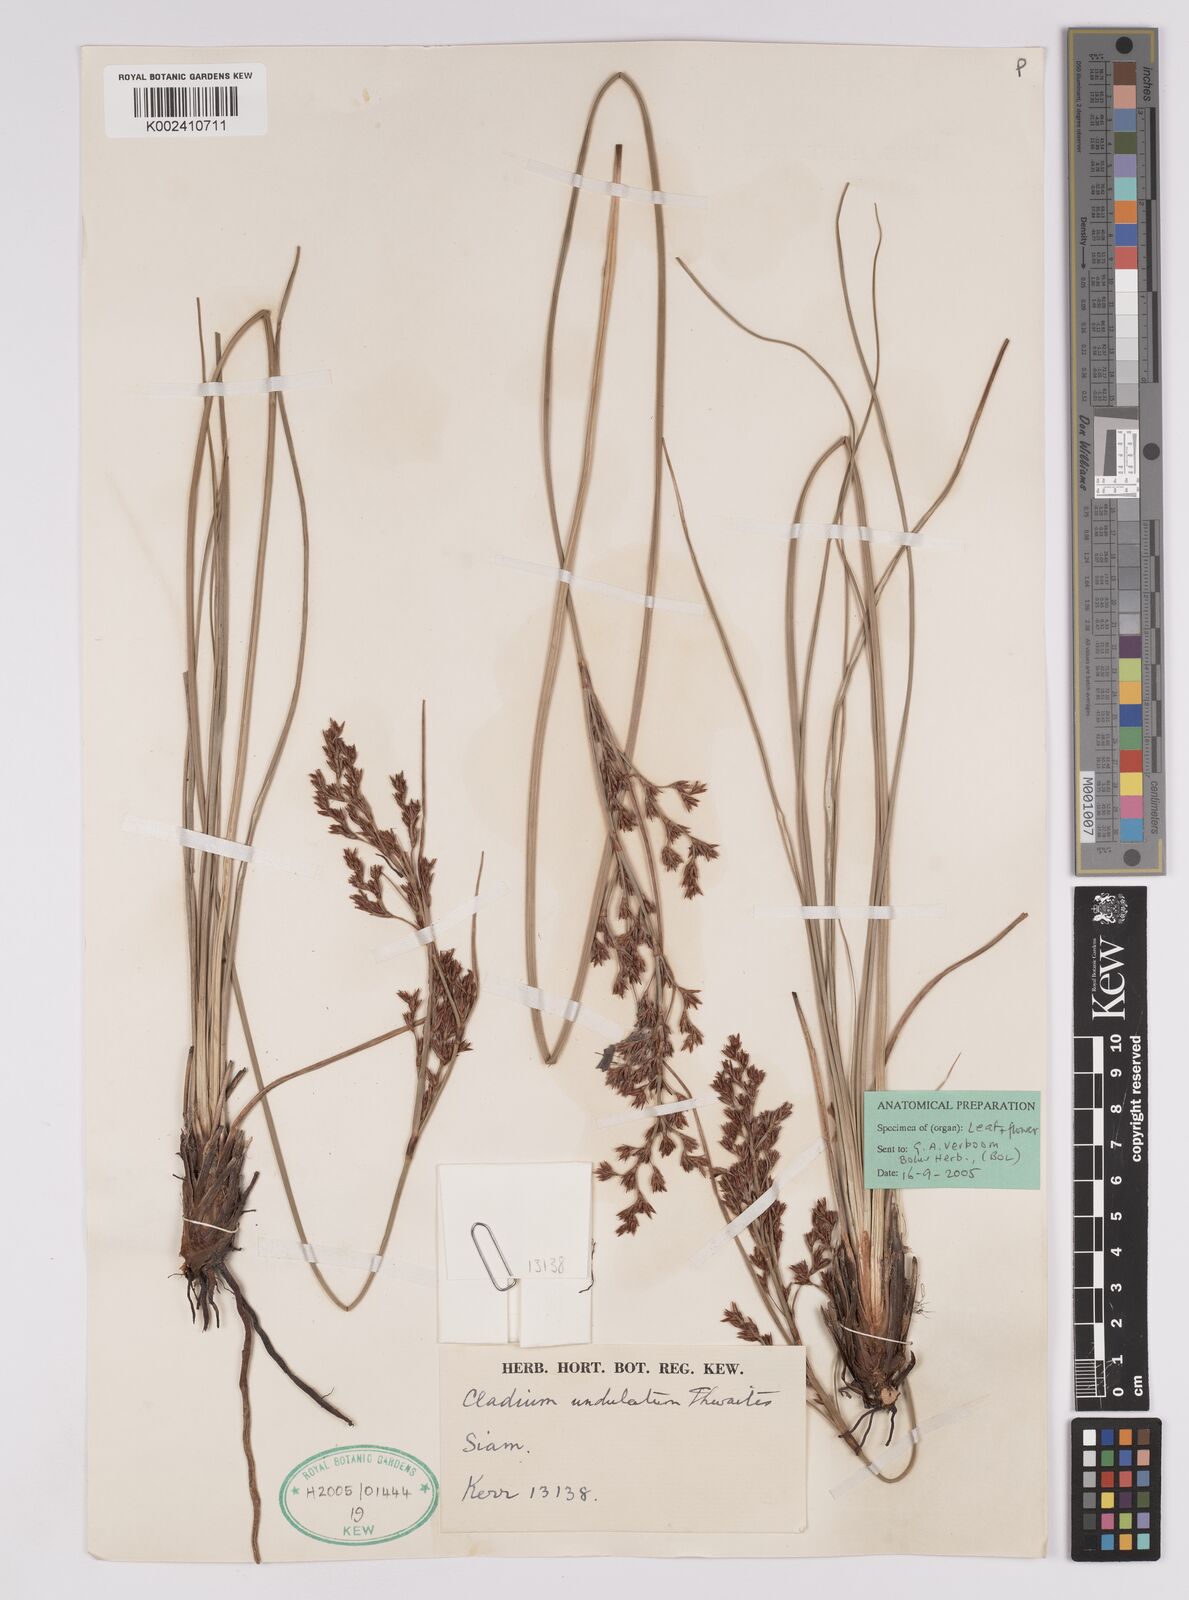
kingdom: Plantae
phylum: Tracheophyta
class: Liliopsida
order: Poales
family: Cyperaceae
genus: Anthelepis
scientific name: Anthelepis undulata
